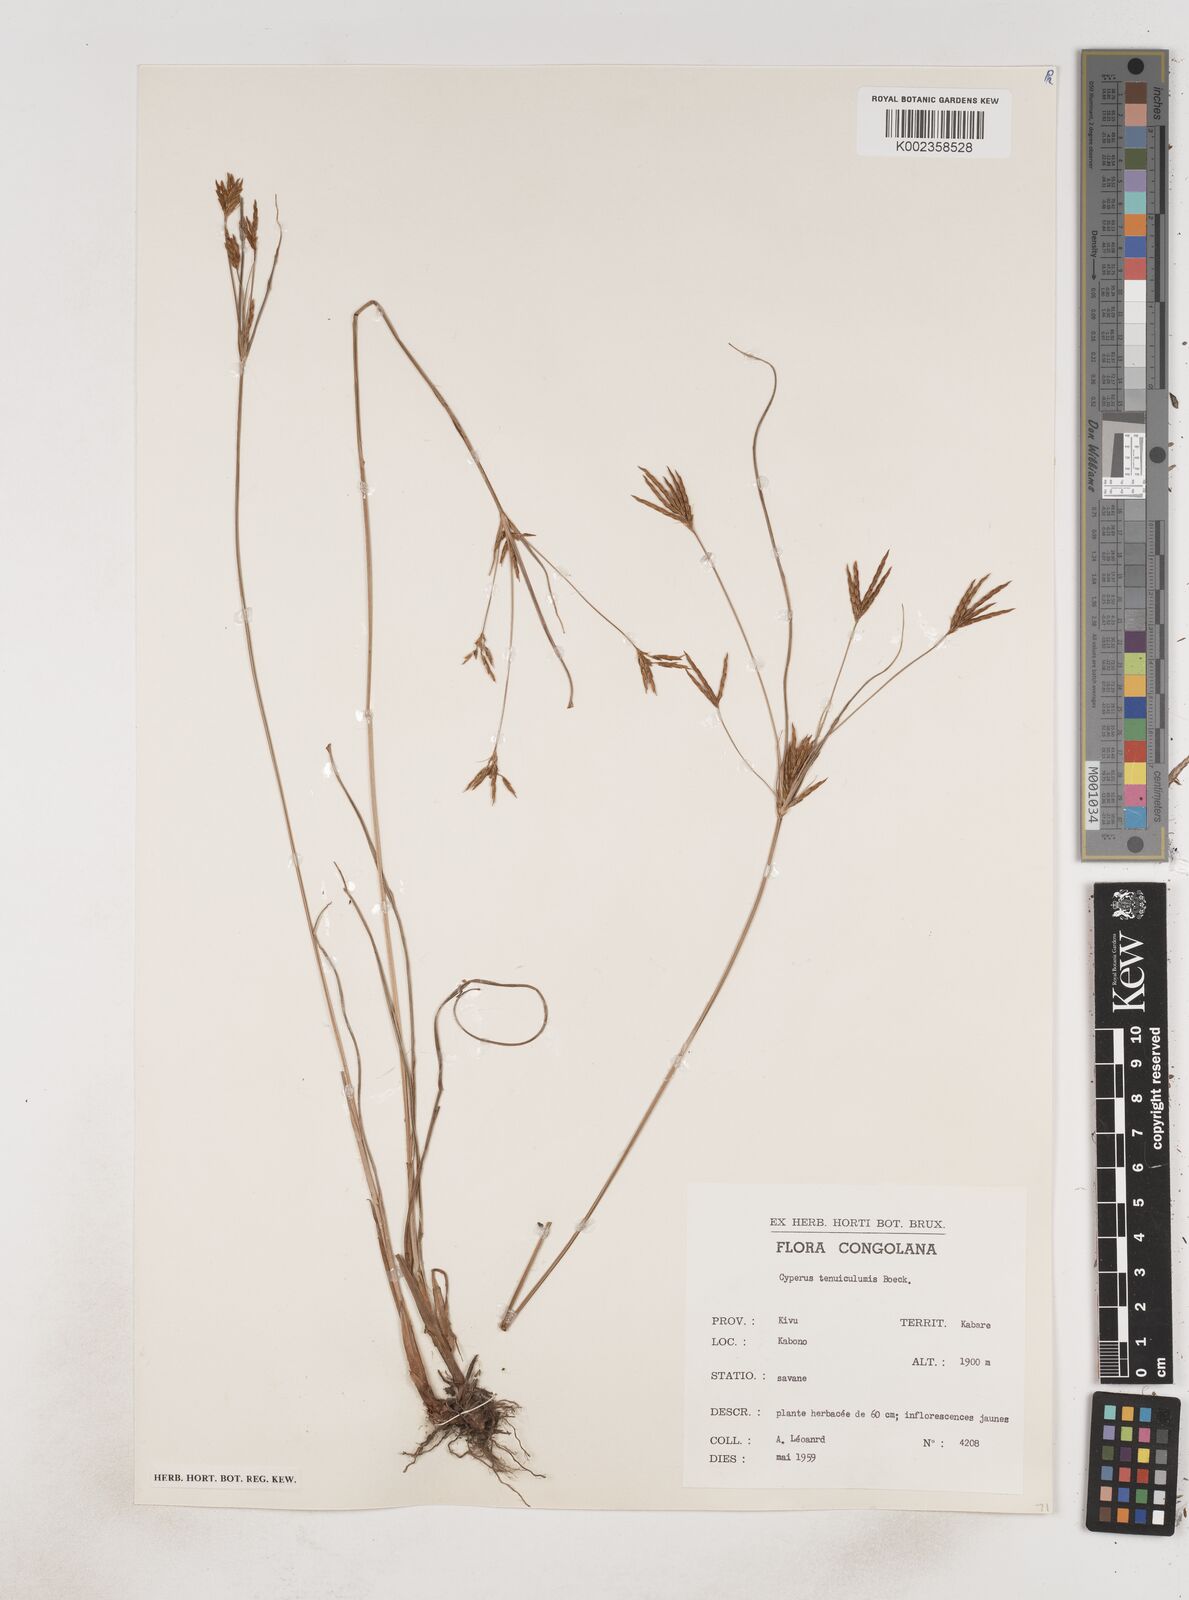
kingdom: Plantae
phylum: Tracheophyta
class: Liliopsida
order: Poales
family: Cyperaceae
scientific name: Cyperaceae
